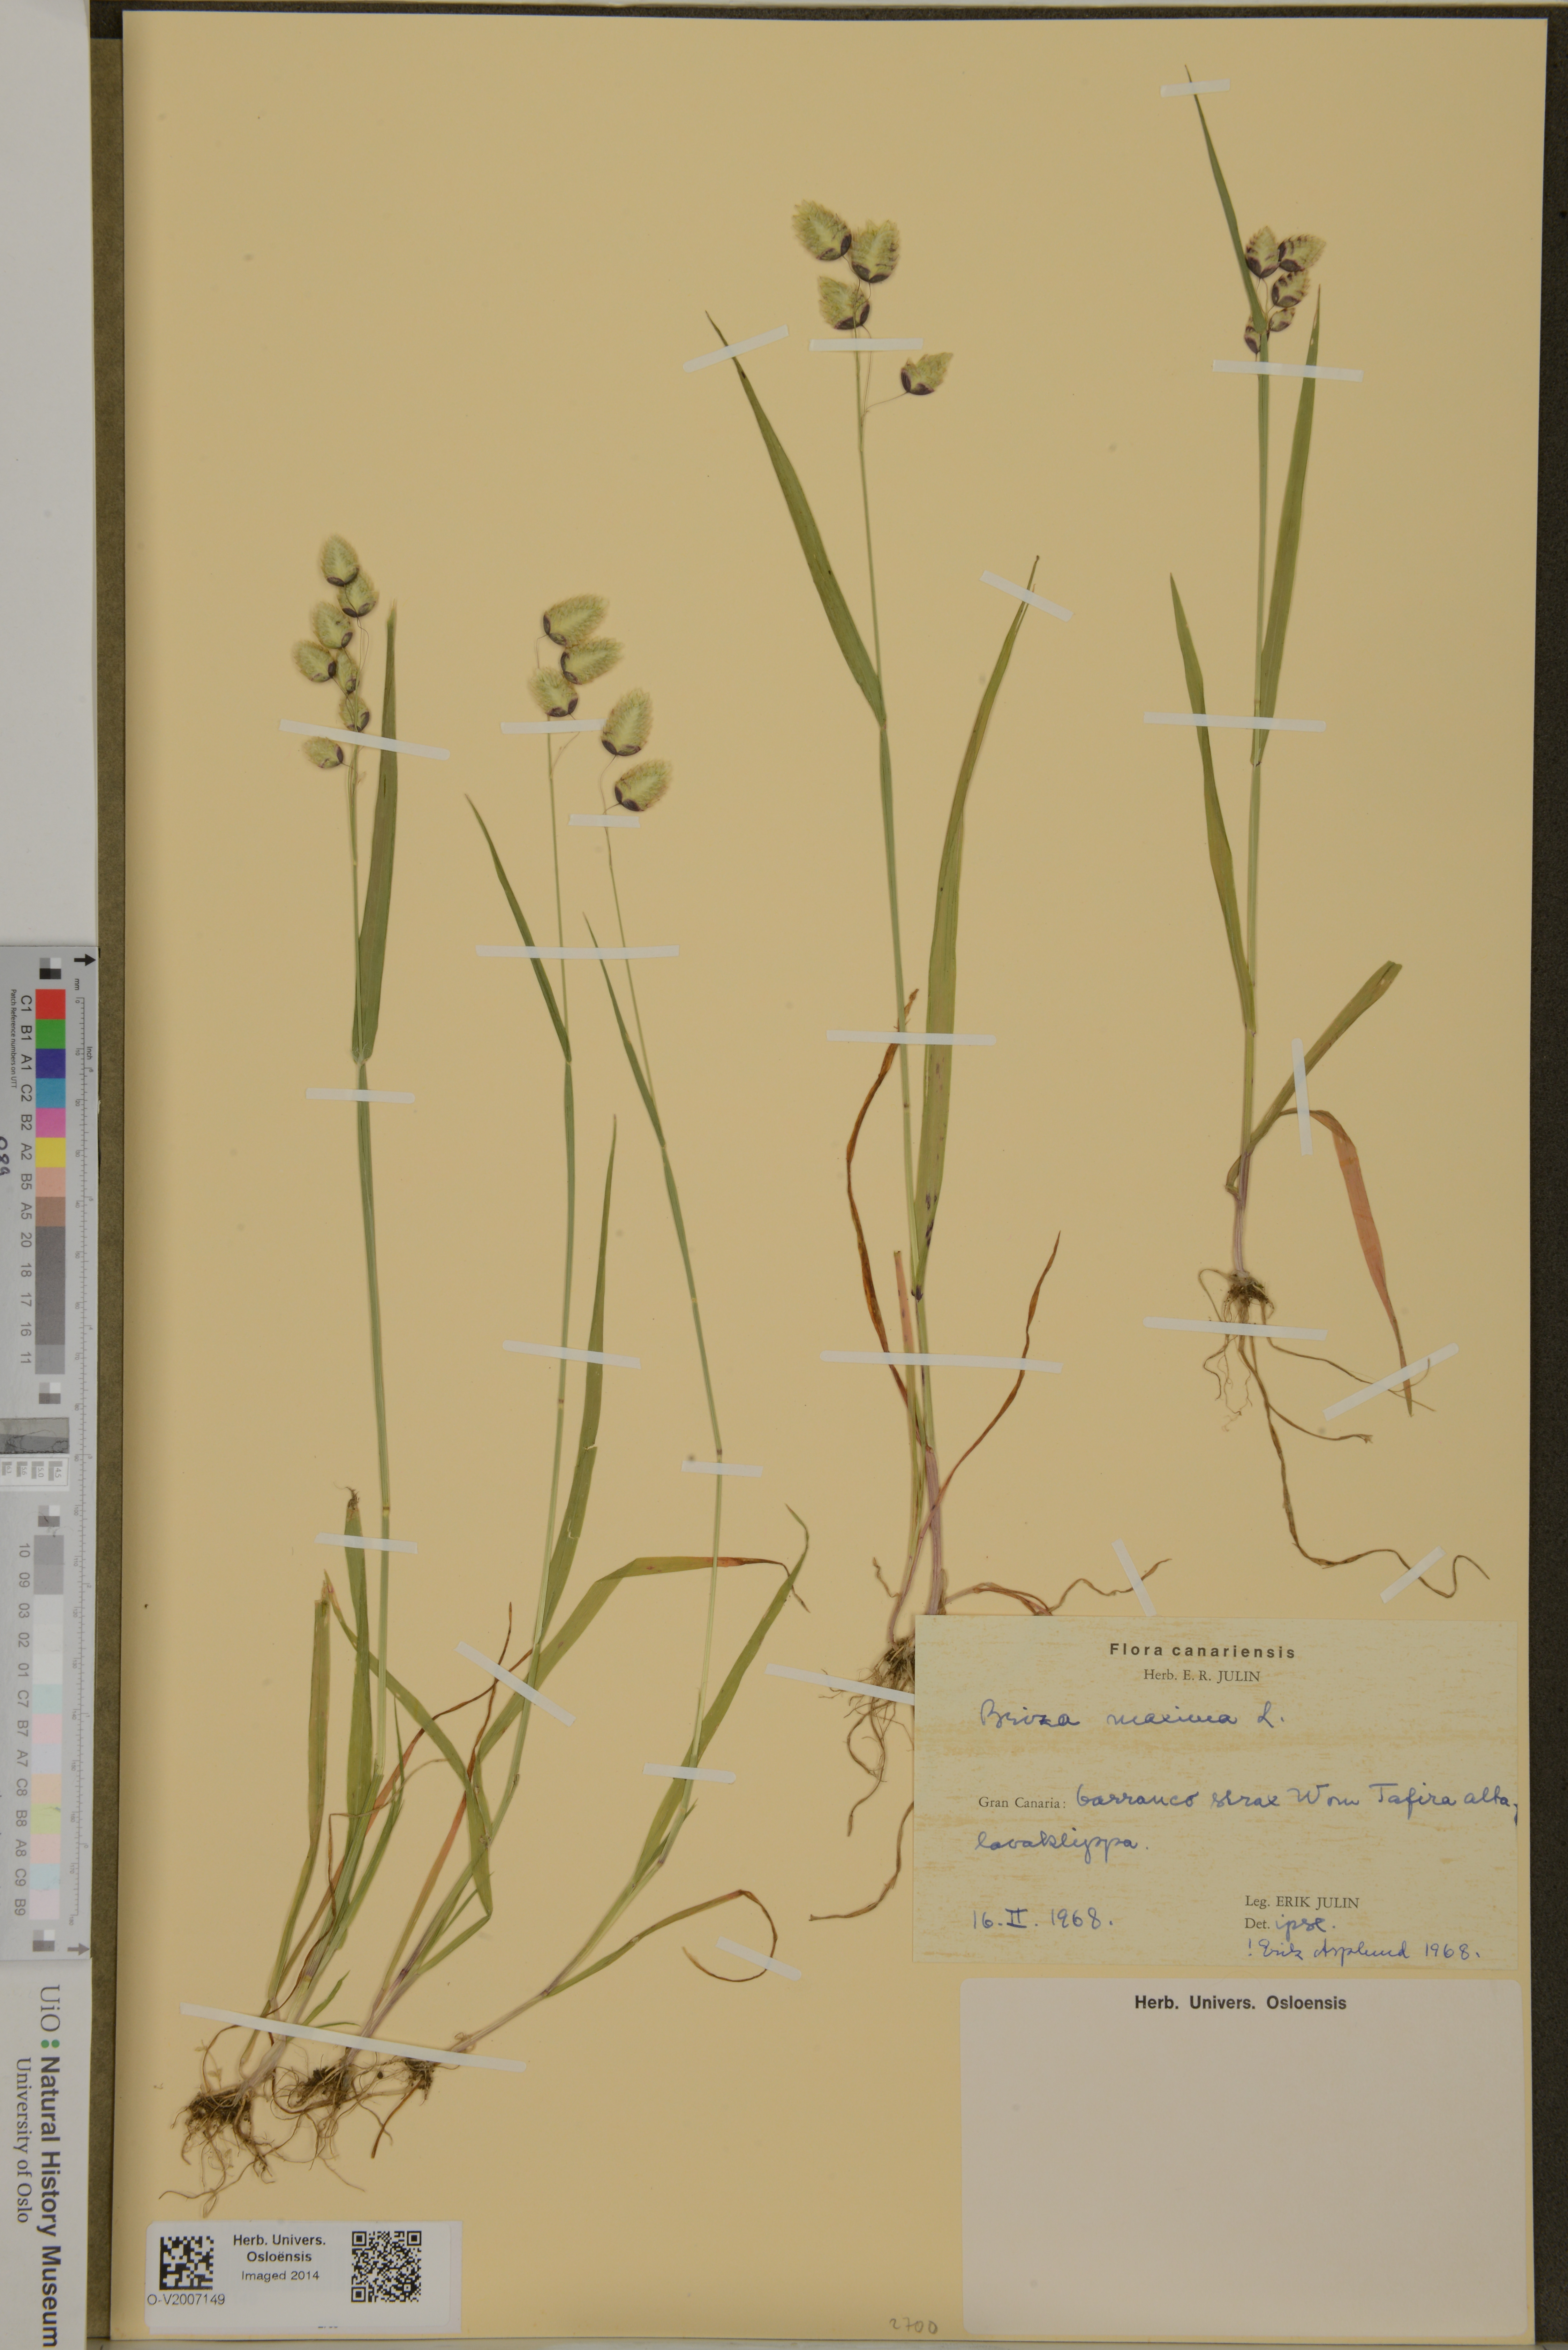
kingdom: Plantae
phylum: Tracheophyta
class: Liliopsida
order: Poales
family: Poaceae
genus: Briza
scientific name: Briza maxima
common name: Big quakinggrass
